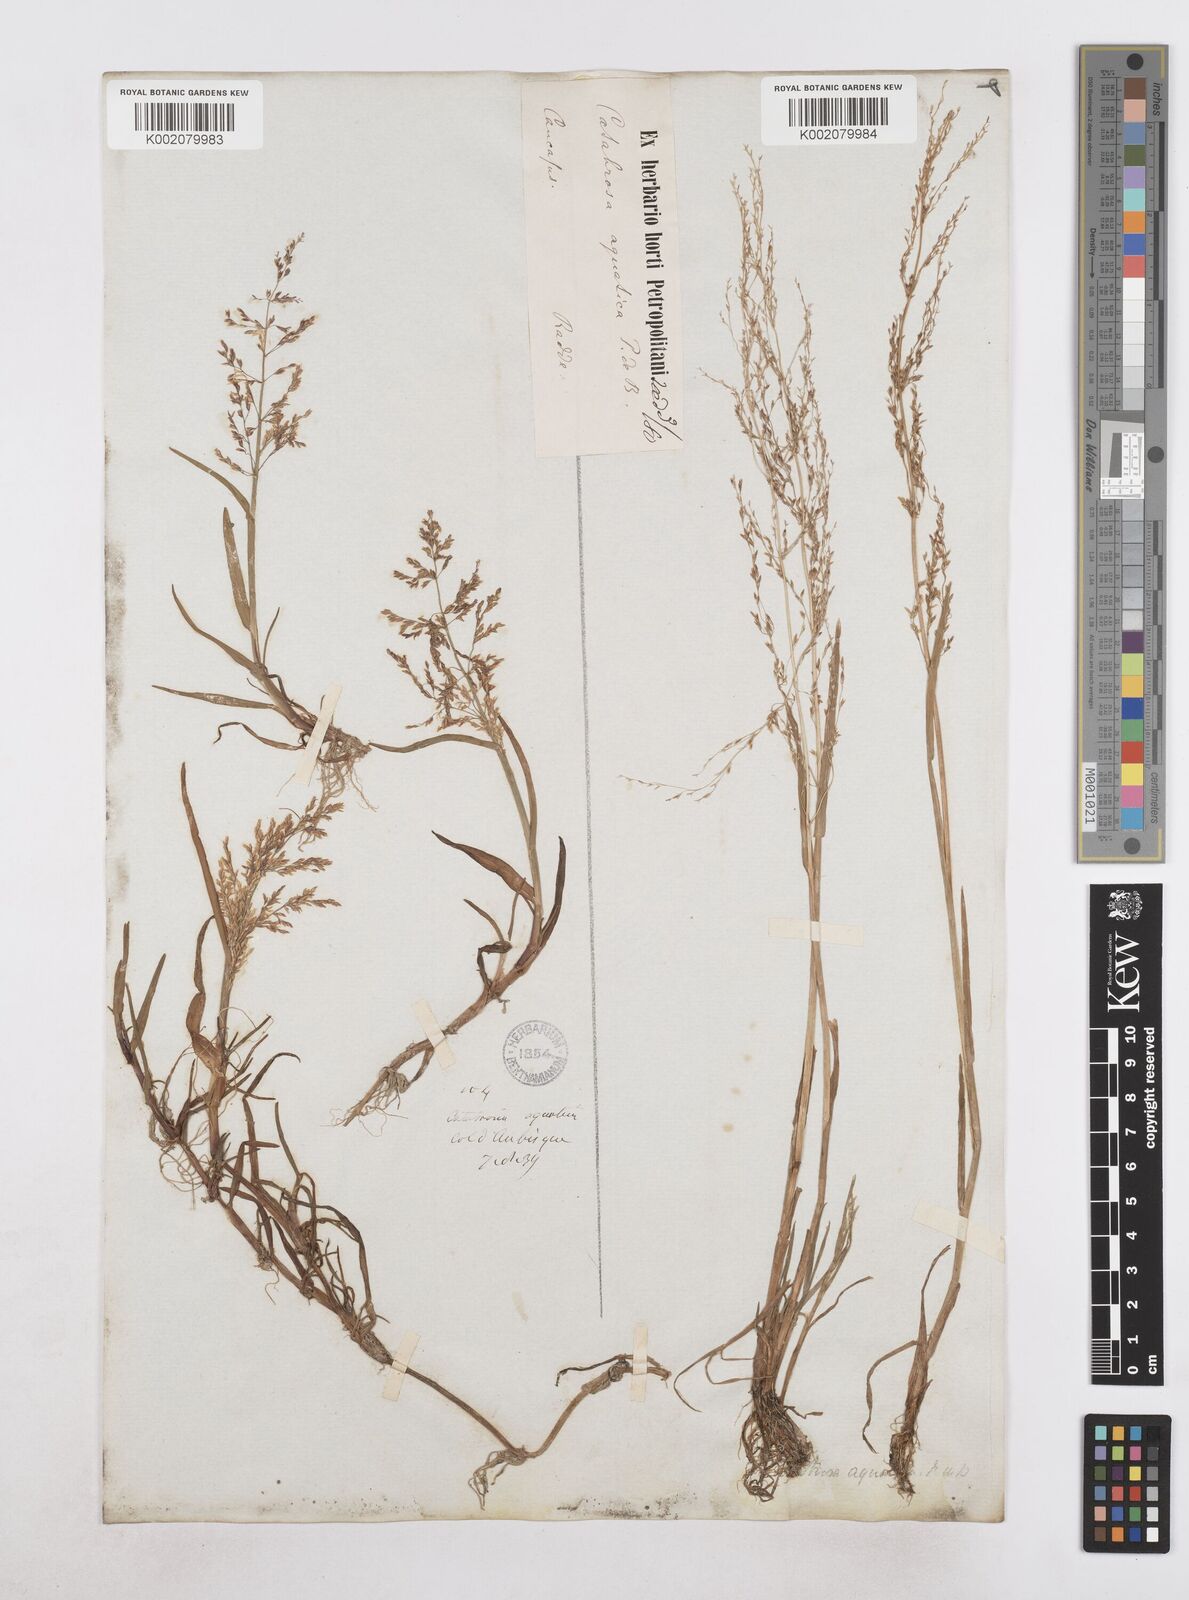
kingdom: Plantae
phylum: Tracheophyta
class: Liliopsida
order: Poales
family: Poaceae
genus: Catabrosa
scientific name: Catabrosa aquatica
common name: Whorl-grass
